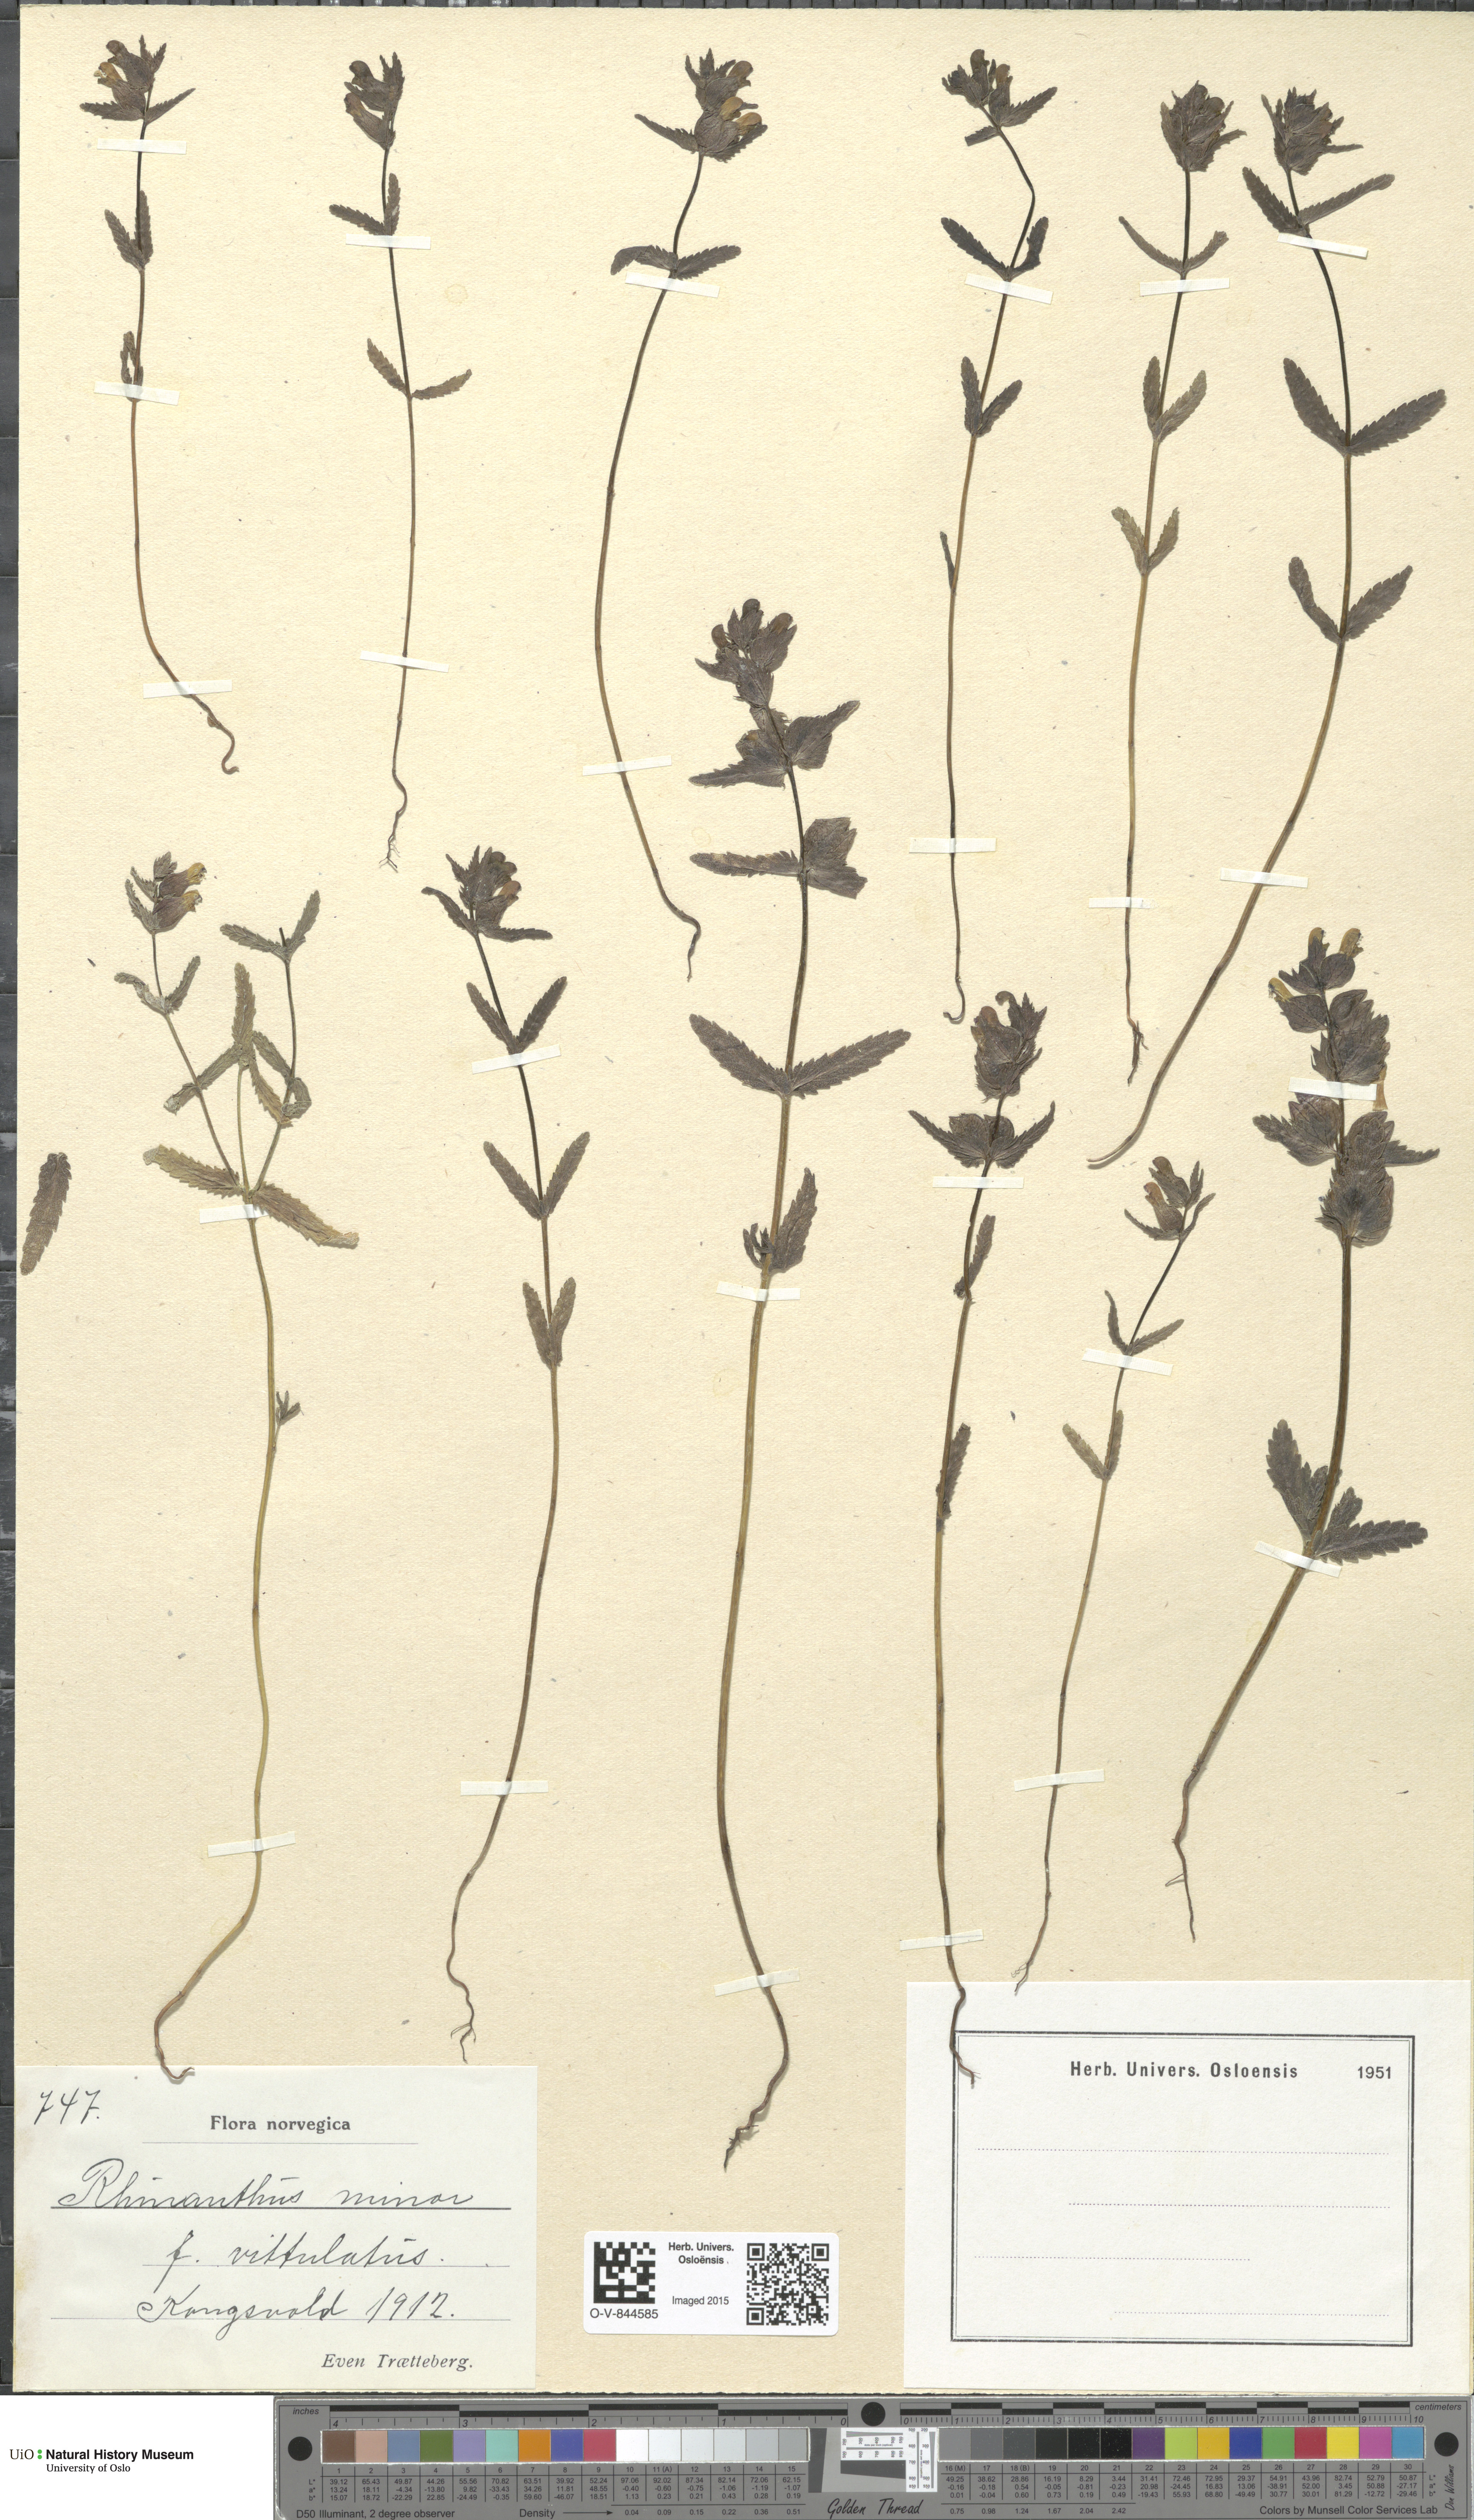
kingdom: Plantae
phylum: Tracheophyta
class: Magnoliopsida
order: Lamiales
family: Orobanchaceae
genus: Rhinanthus
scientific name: Rhinanthus minor
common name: Yellow-rattle
